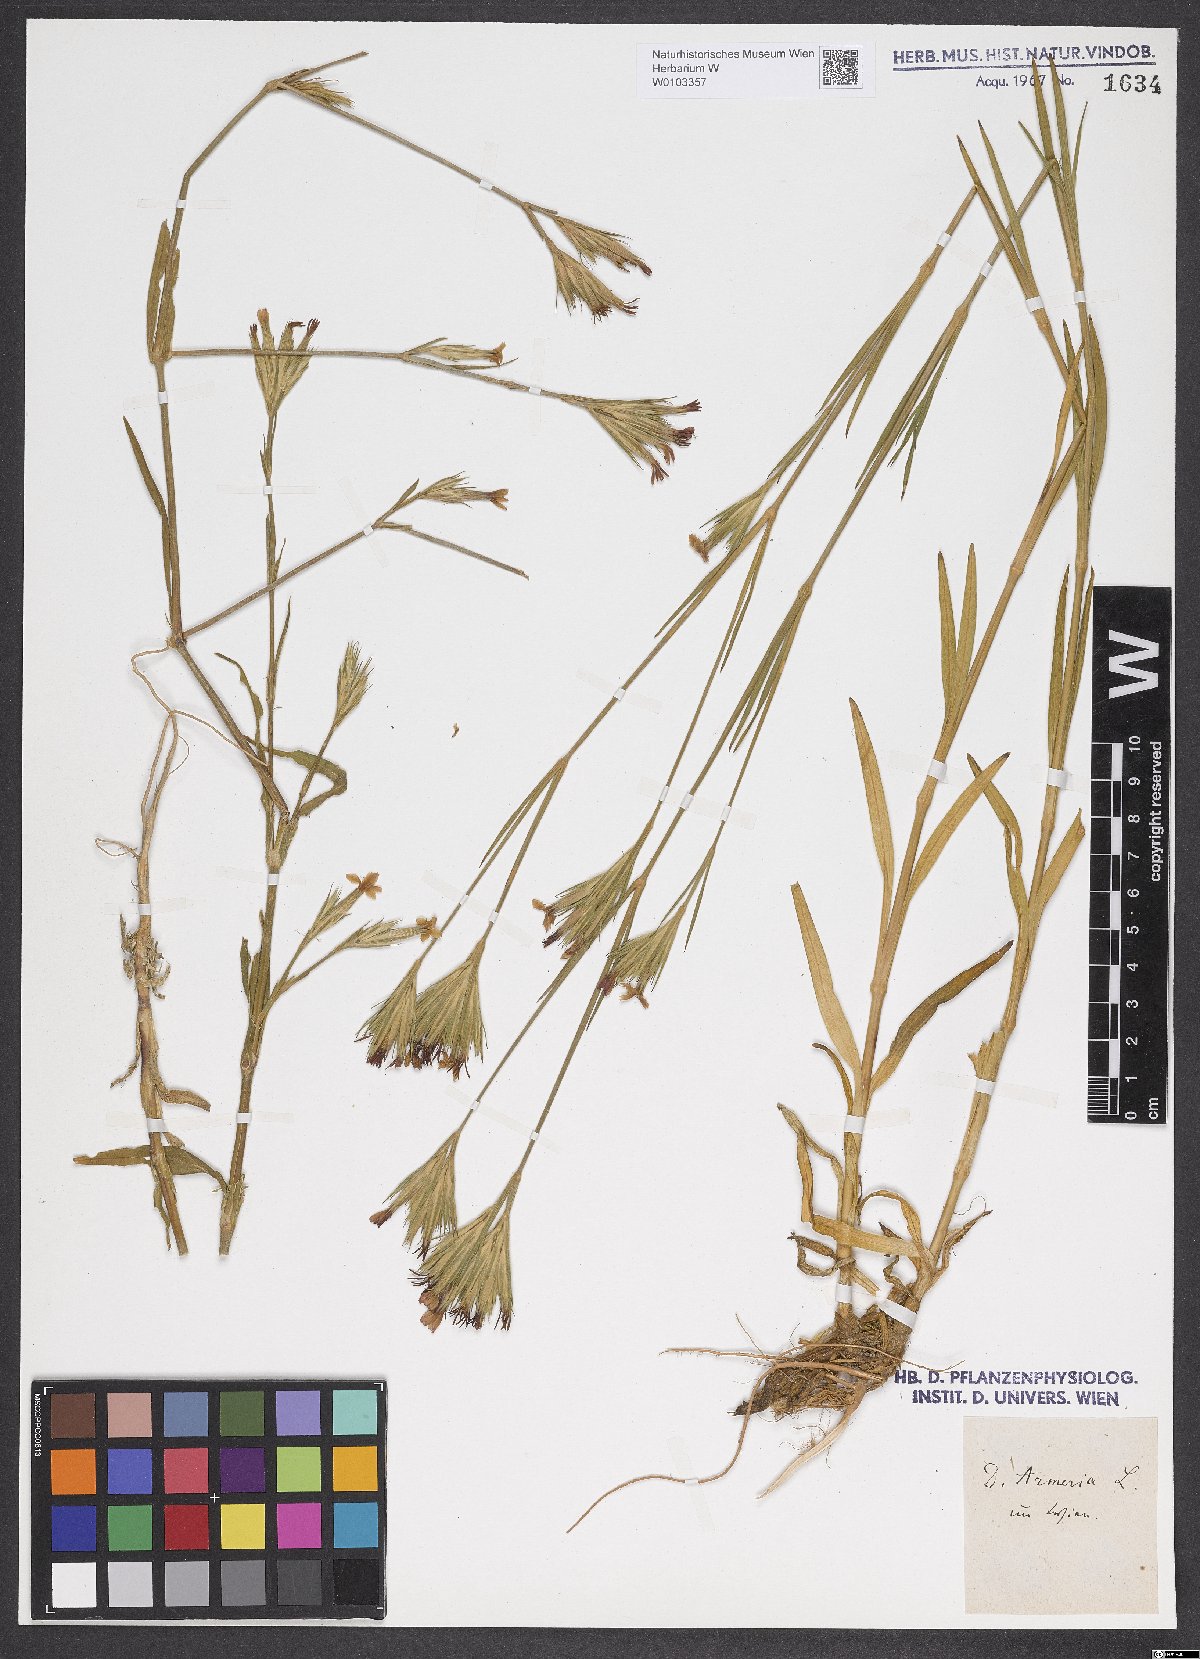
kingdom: Plantae
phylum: Tracheophyta
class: Magnoliopsida
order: Caryophyllales
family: Caryophyllaceae
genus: Dianthus
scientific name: Dianthus armeria
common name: Deptford pink
